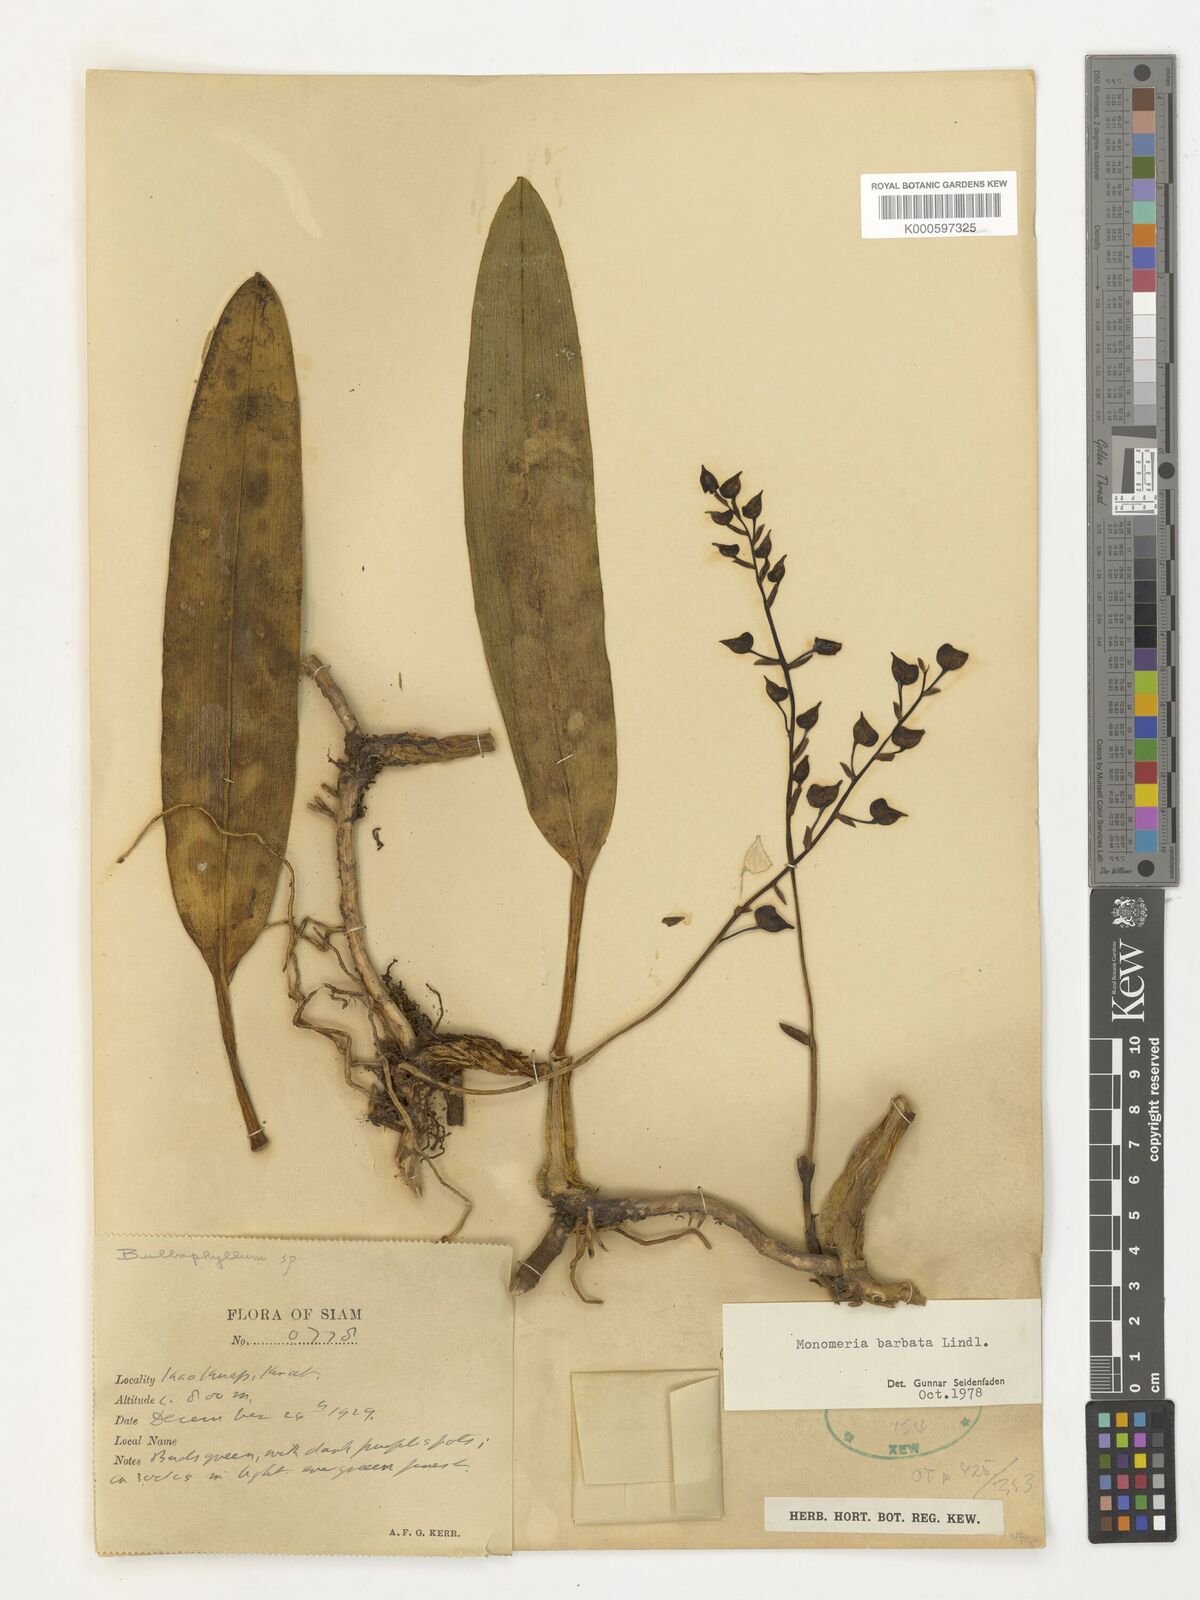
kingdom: Plantae
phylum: Tracheophyta
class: Liliopsida
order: Asparagales
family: Orchidaceae
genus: Bulbophyllum
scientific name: Bulbophyllum crabro
